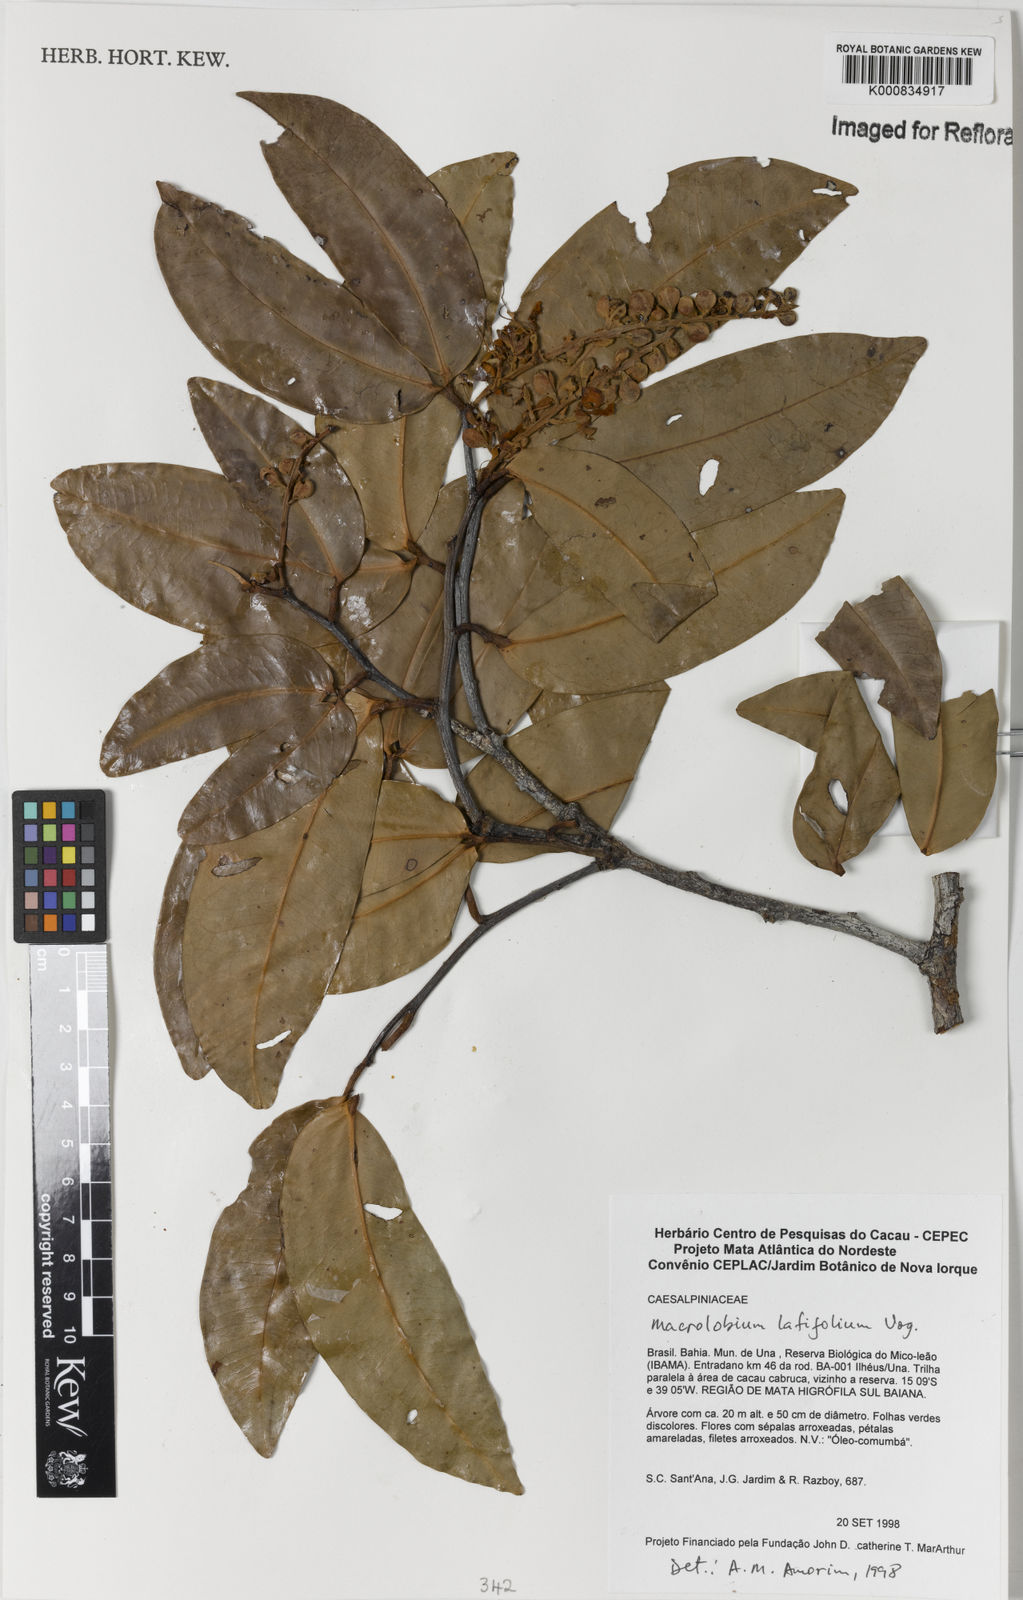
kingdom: Plantae
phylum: Tracheophyta
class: Magnoliopsida
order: Fabales
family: Fabaceae
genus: Macrolobium
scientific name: Macrolobium latifolium
